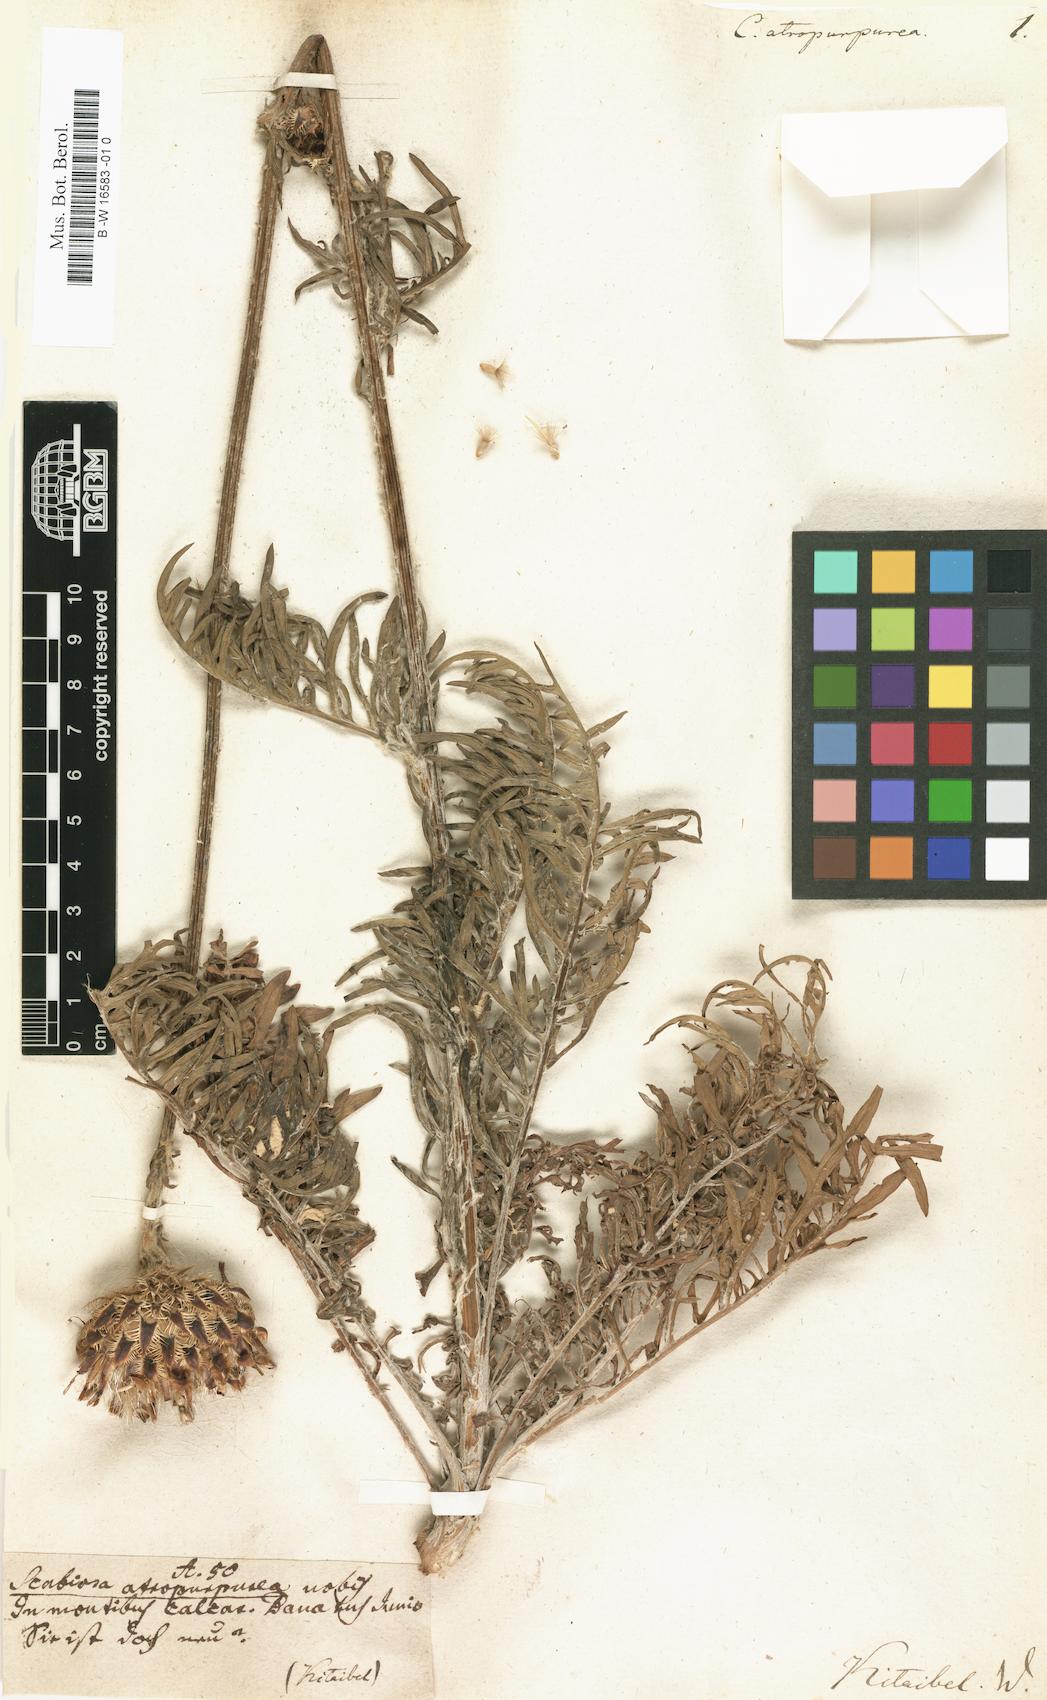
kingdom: Plantae
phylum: Tracheophyta
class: Magnoliopsida
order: Asterales
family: Asteraceae
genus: Centaurea
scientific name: Centaurea calocephala
